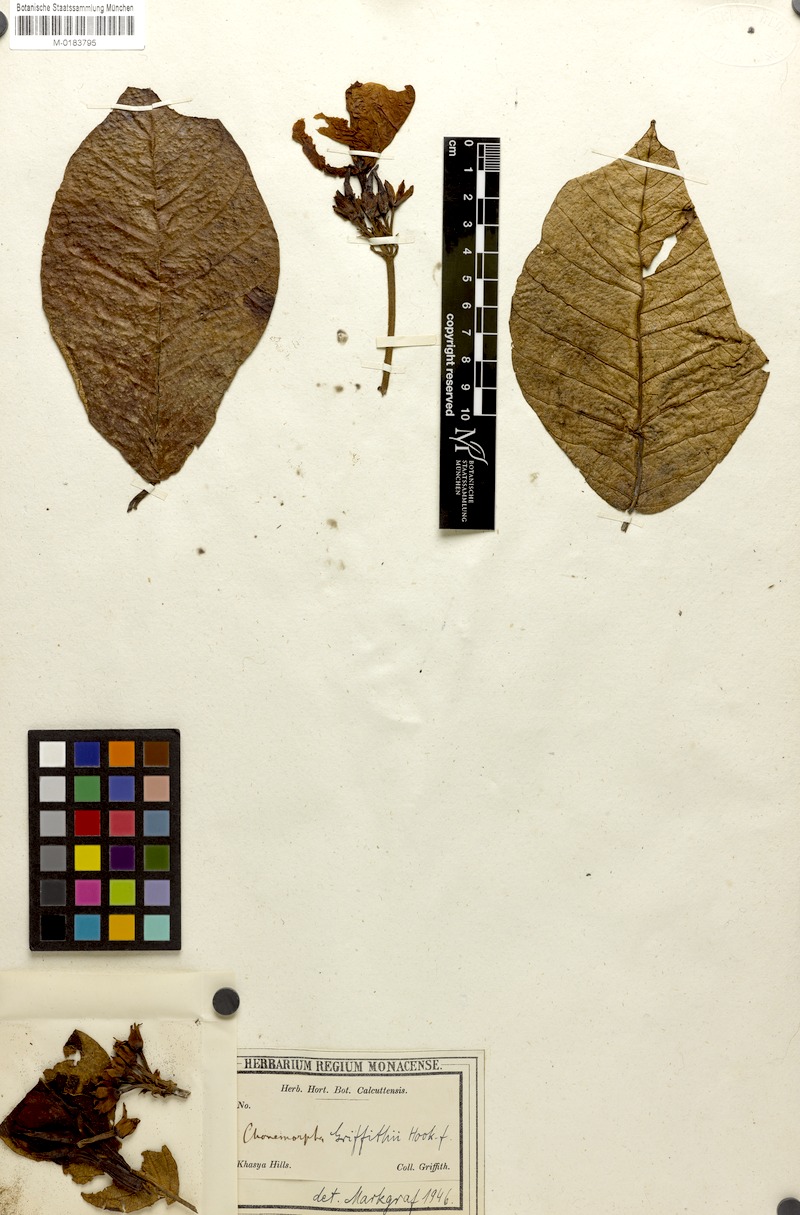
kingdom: Plantae
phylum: Tracheophyta
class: Magnoliopsida
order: Gentianales
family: Apocynaceae
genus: Chonemorpha
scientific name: Chonemorpha fragrans
